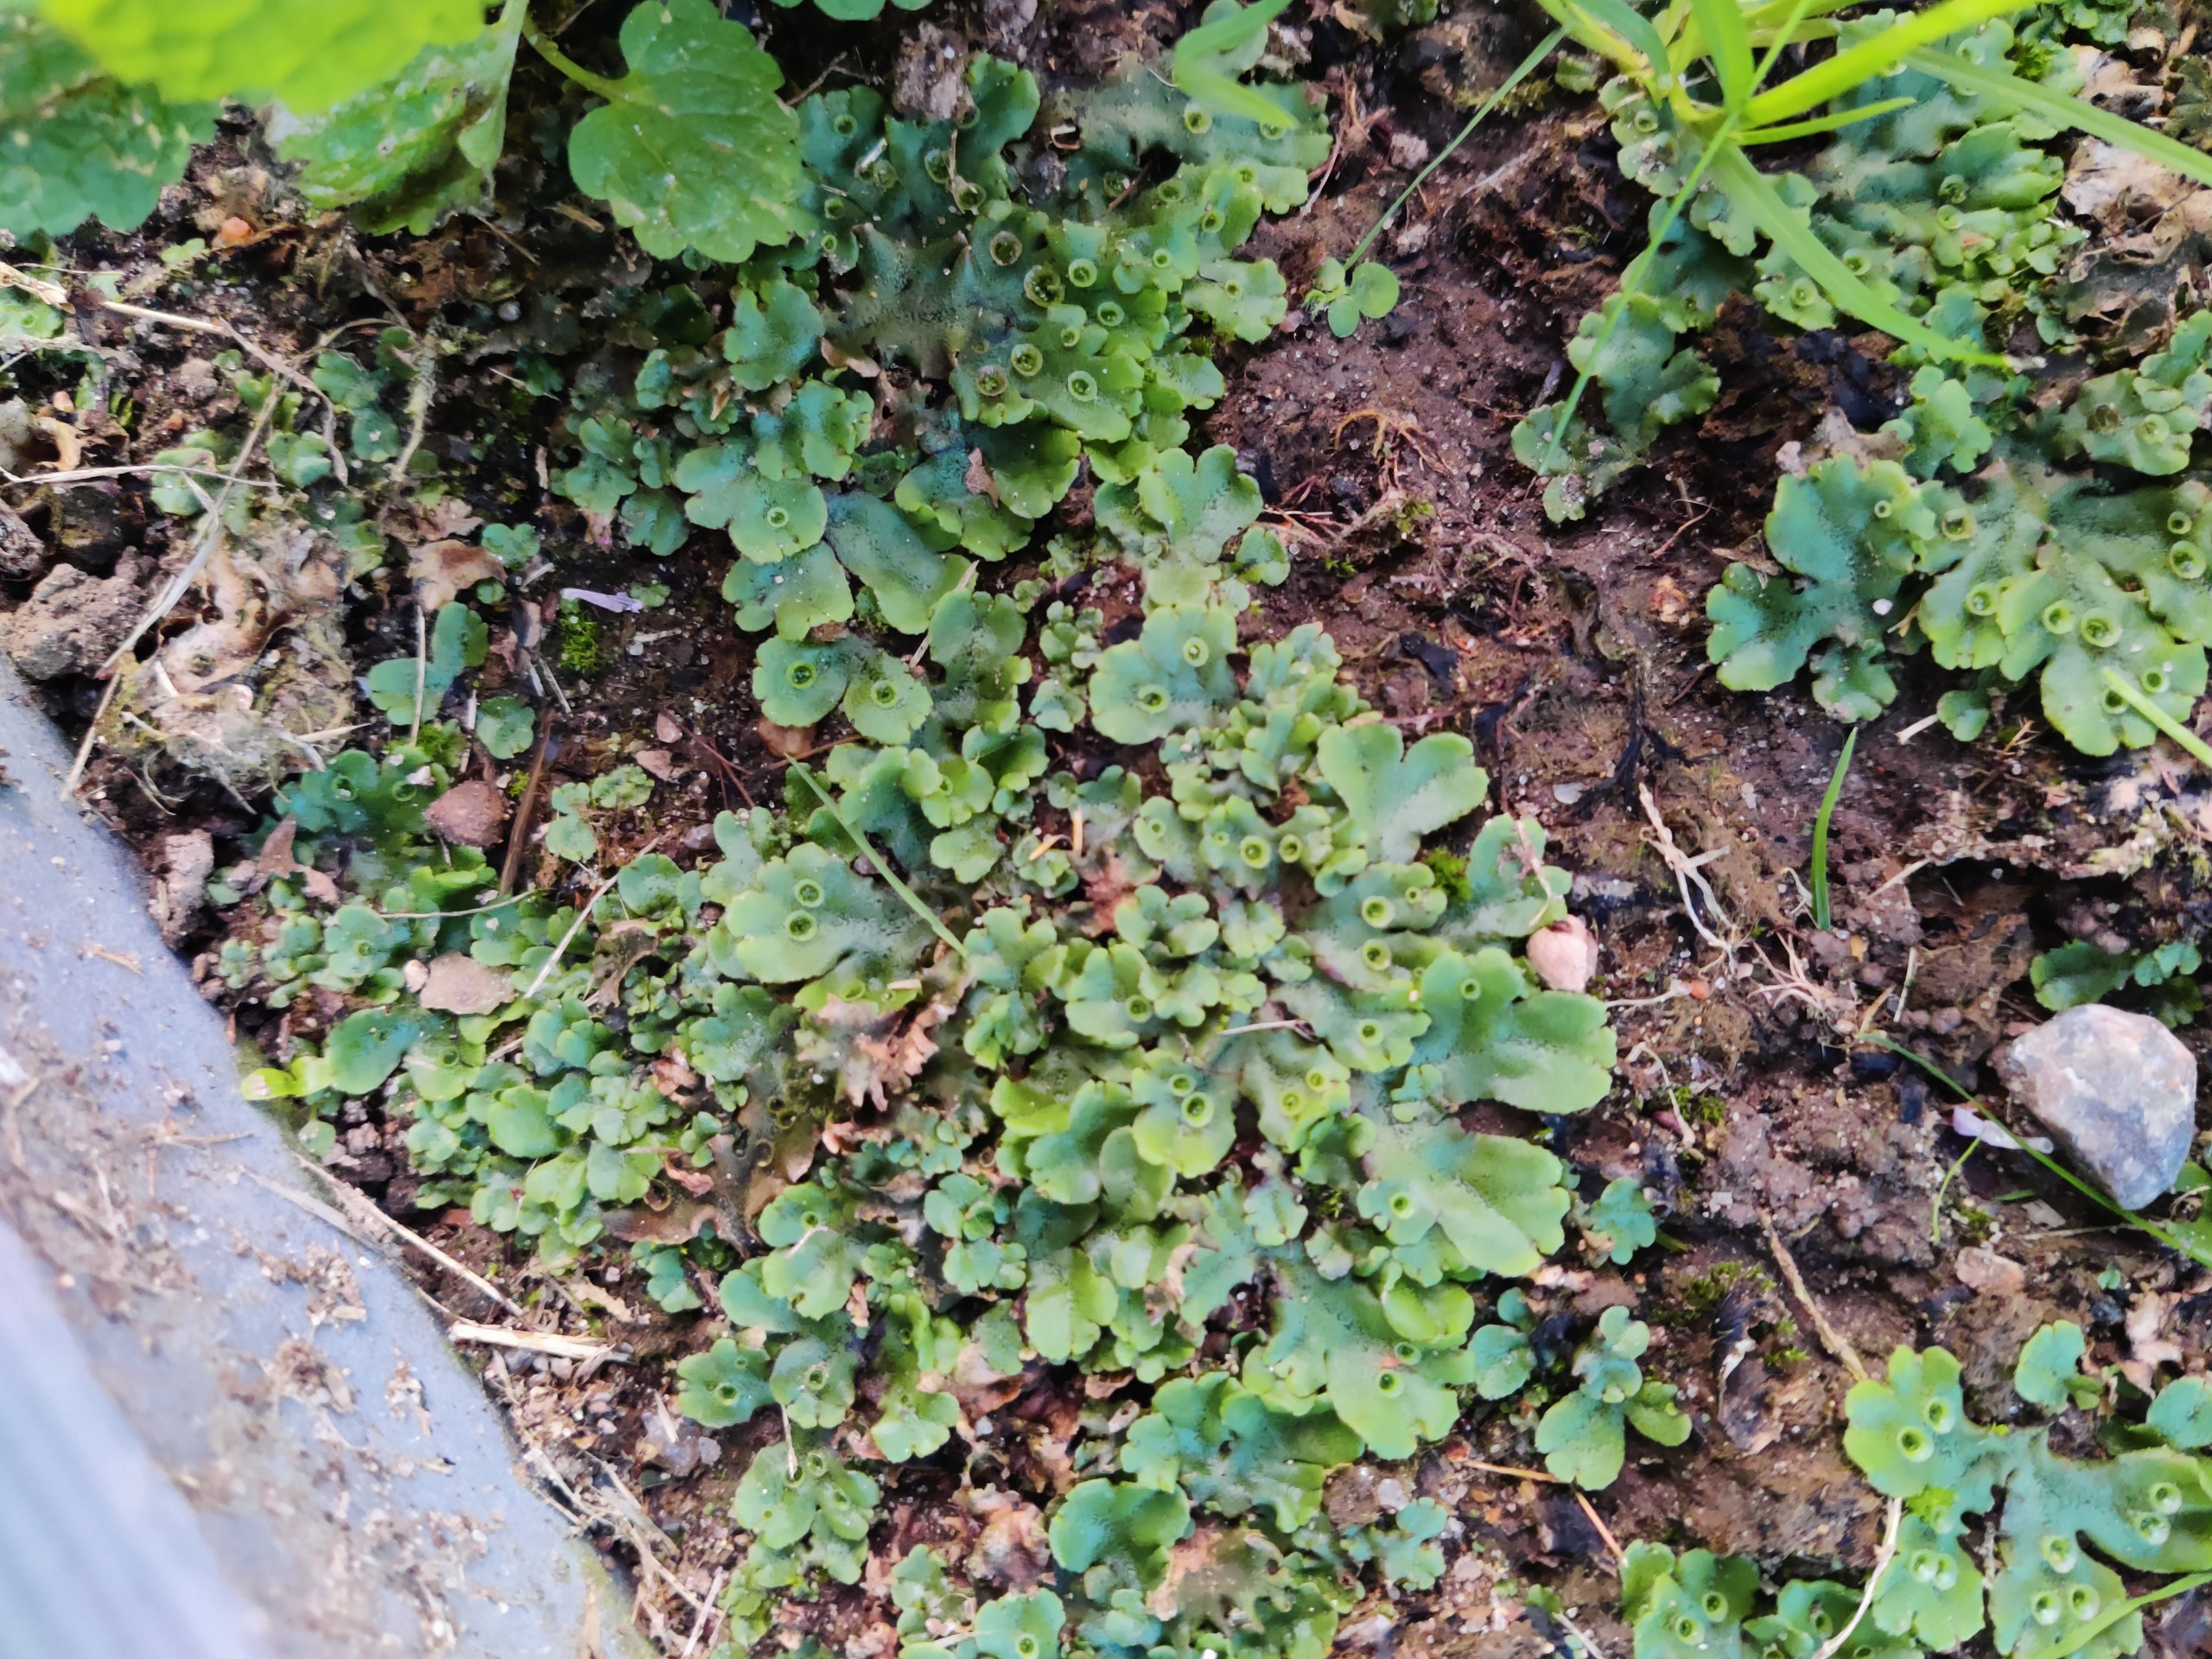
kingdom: Plantae
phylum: Marchantiophyta
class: Marchantiopsida
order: Marchantiales
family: Marchantiaceae
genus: Marchantia
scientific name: Marchantia polymorpha
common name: Almindelig lungemos (underart)
